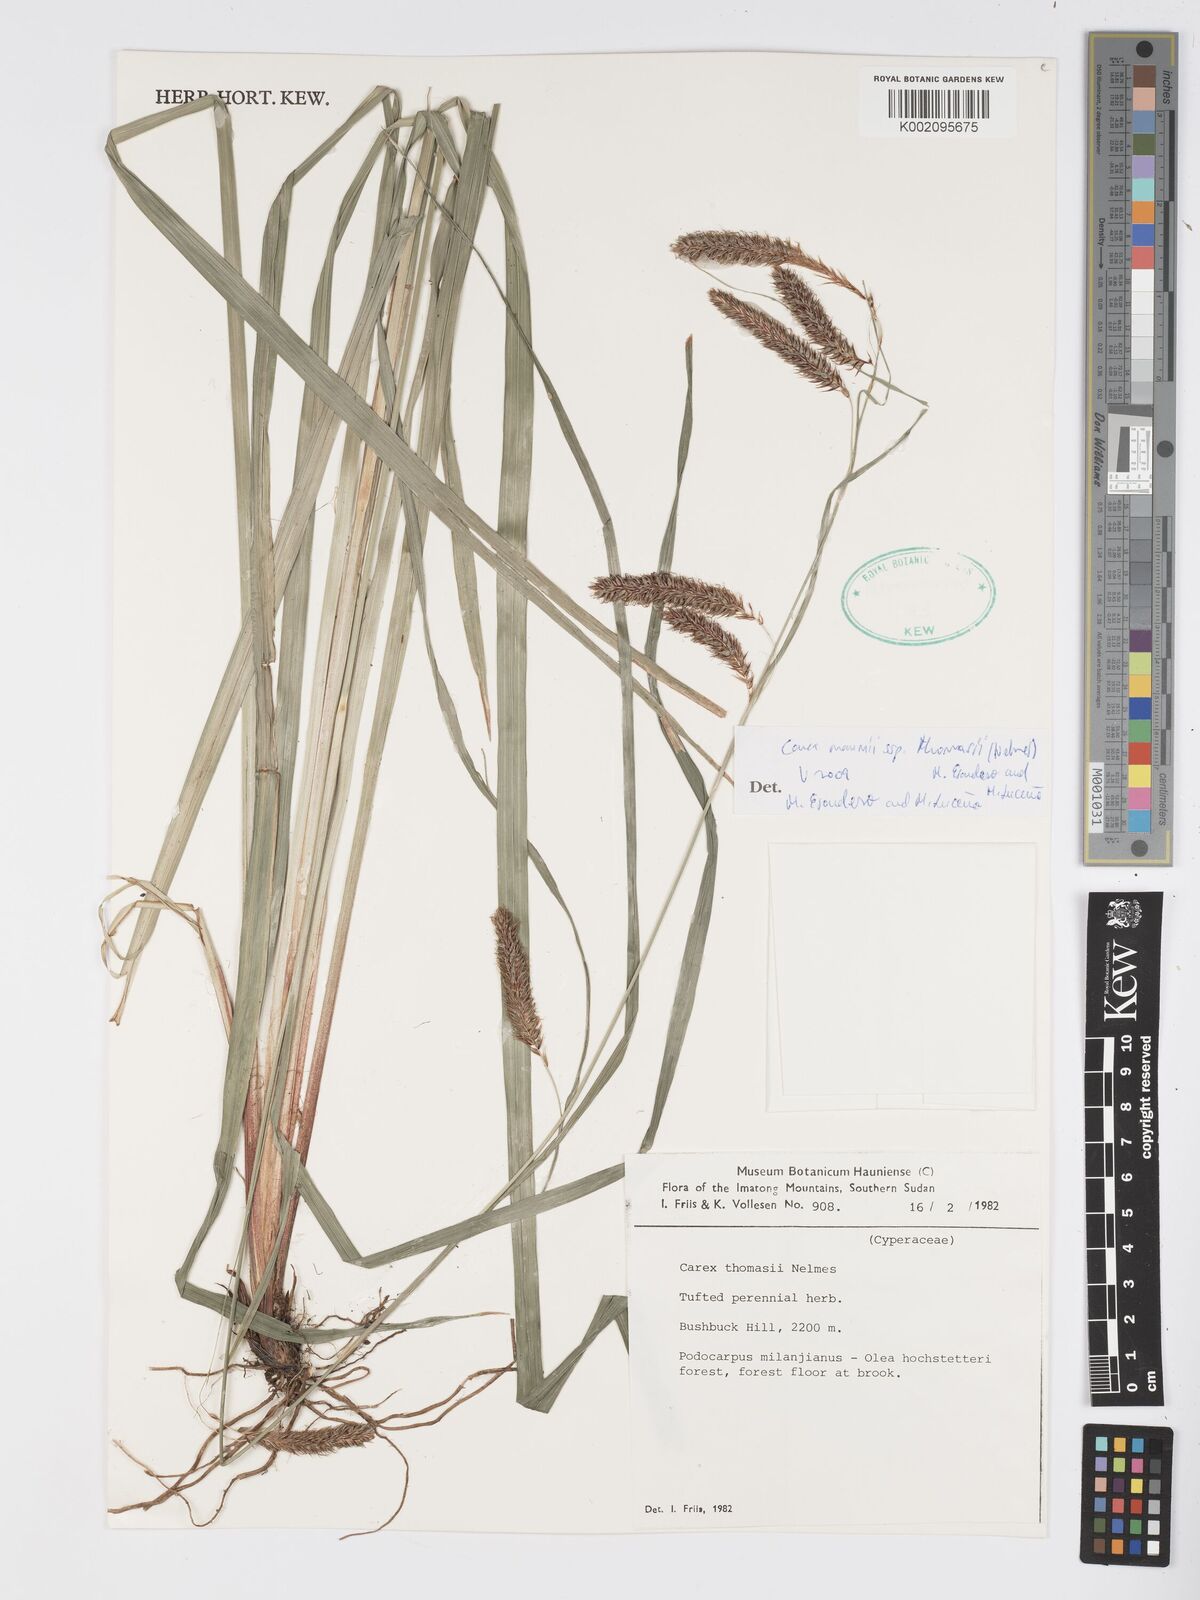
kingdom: Plantae
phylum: Tracheophyta
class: Liliopsida
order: Poales
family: Cyperaceae
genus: Carex
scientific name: Carex mannii
